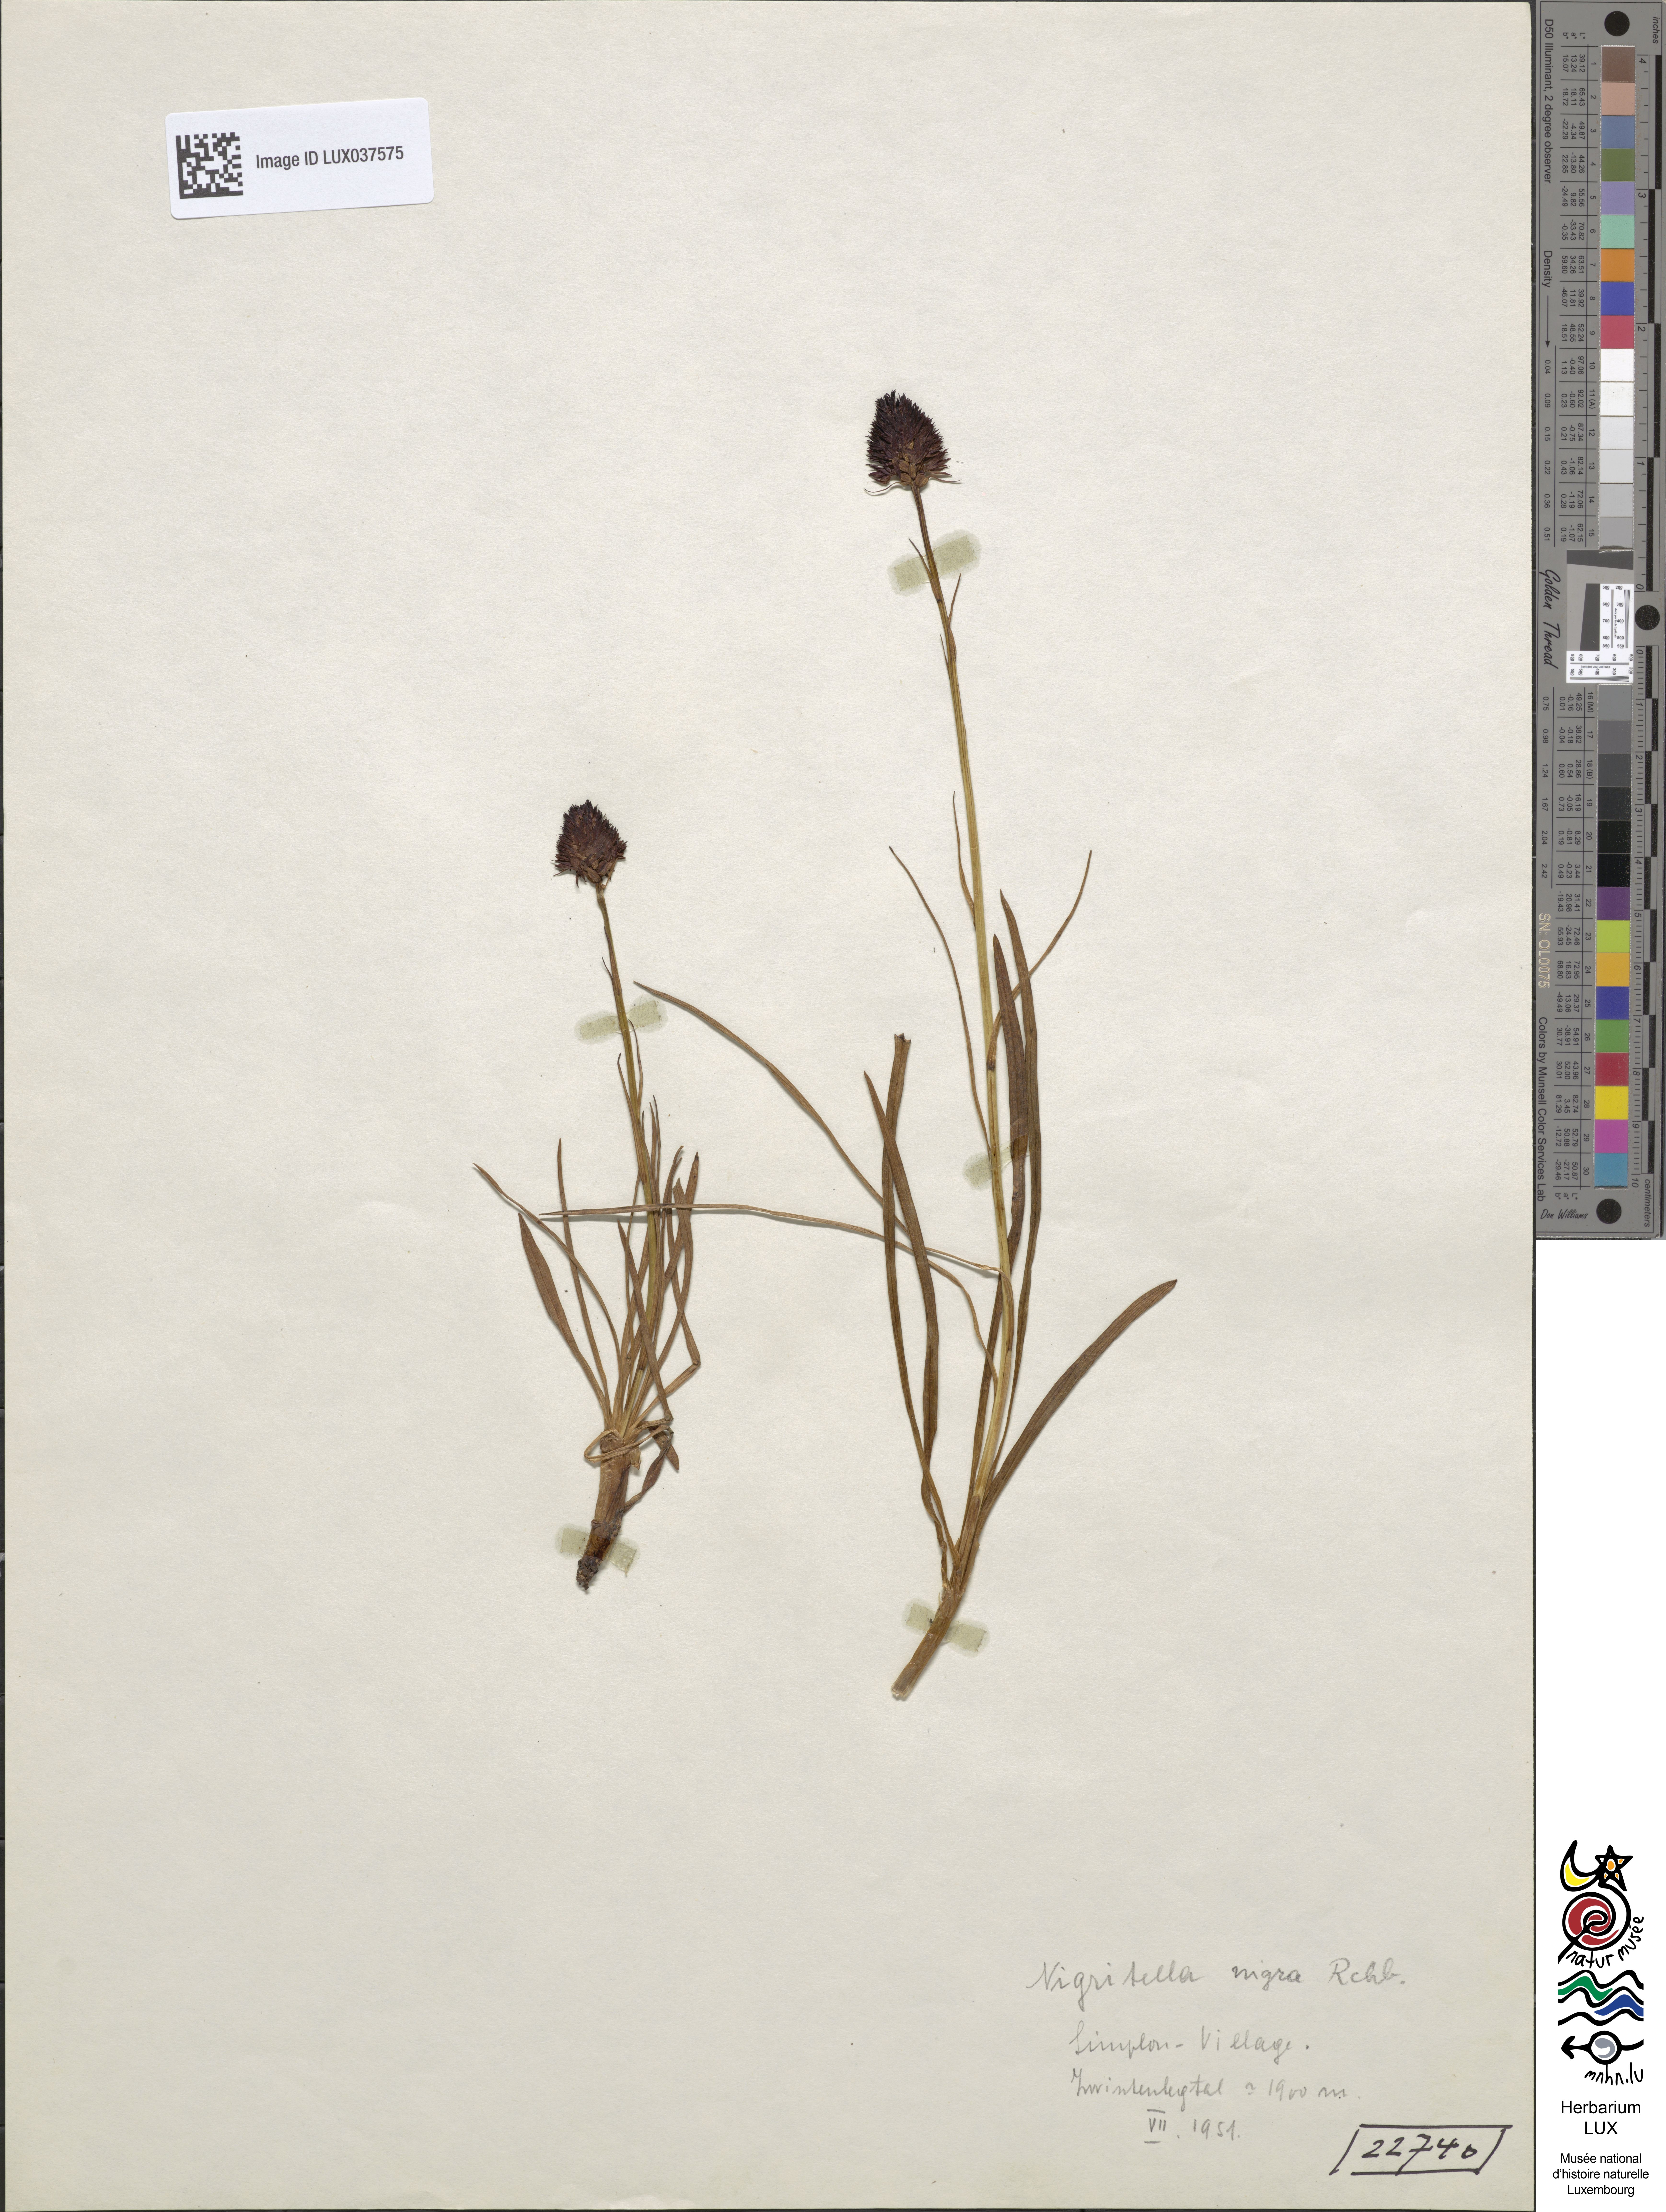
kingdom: Plantae
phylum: Tracheophyta
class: Liliopsida
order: Asparagales
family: Orchidaceae
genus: Gymnadenia
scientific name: Gymnadenia nigra
